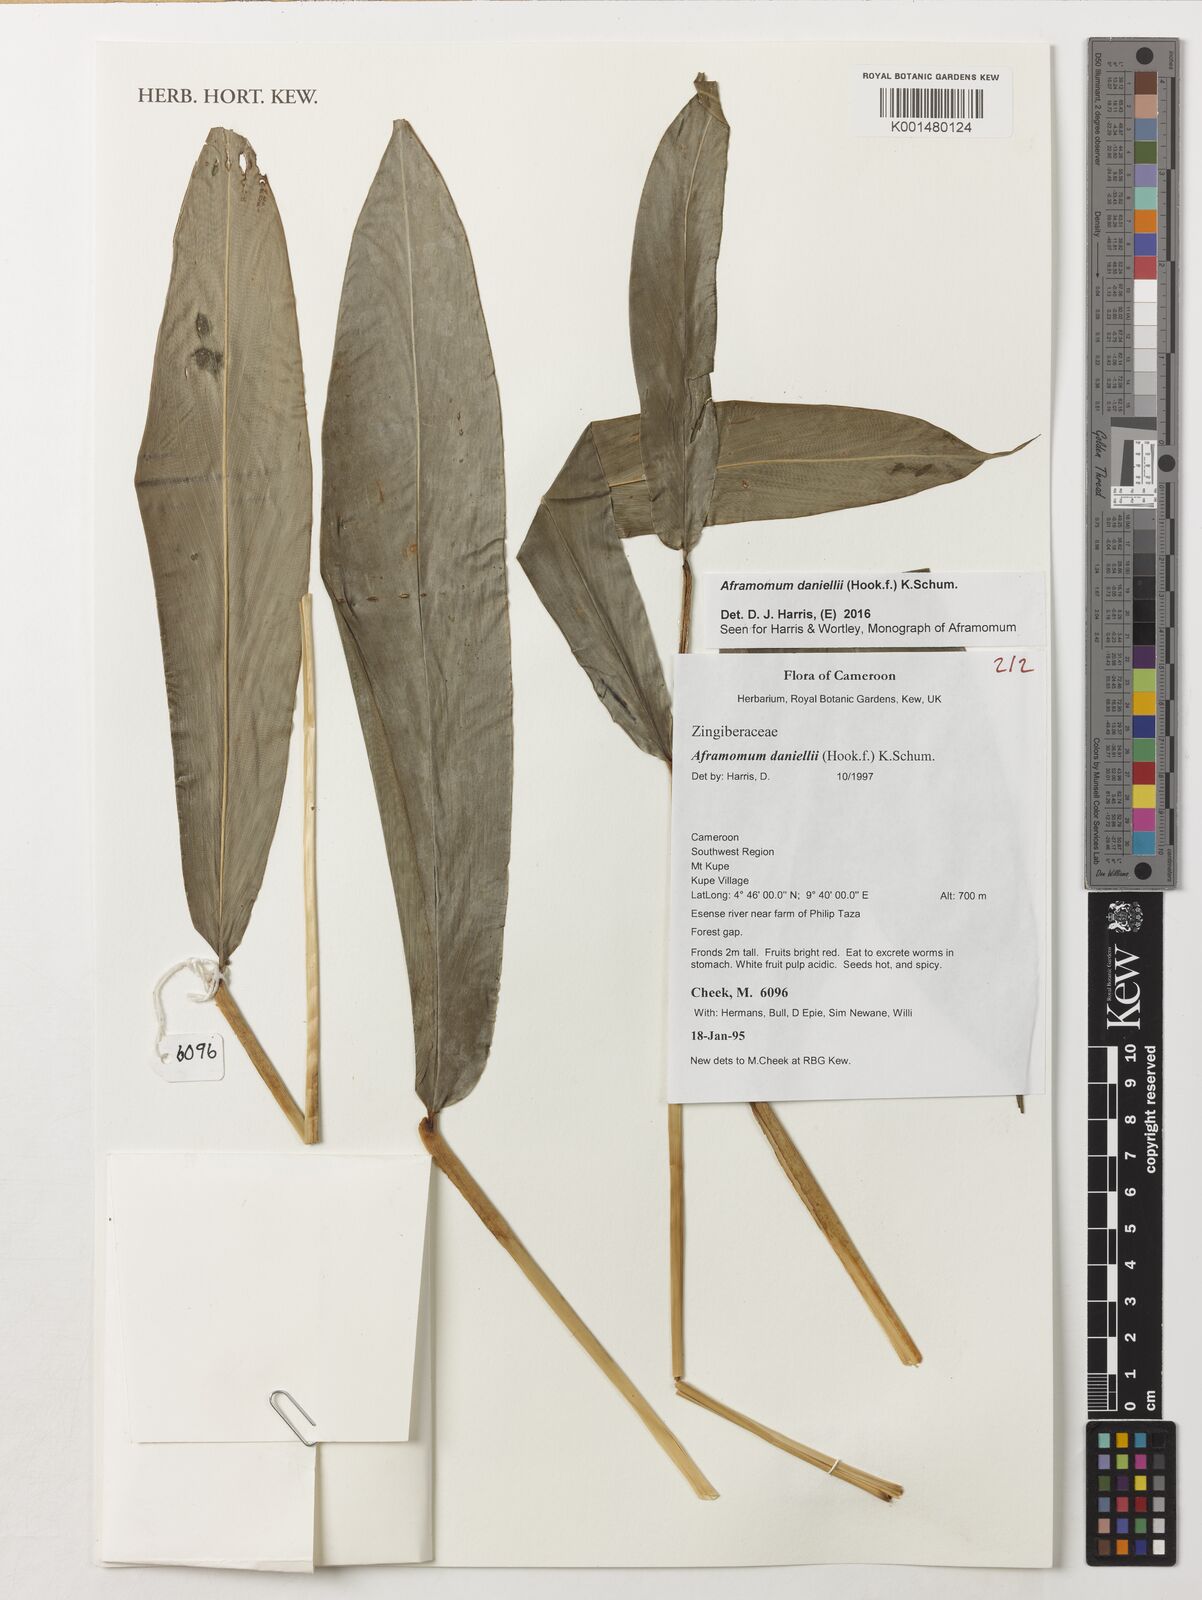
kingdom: Plantae
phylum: Tracheophyta
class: Liliopsida
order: Zingiberales
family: Zingiberaceae
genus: Aframomum
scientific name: Aframomum daniellii
